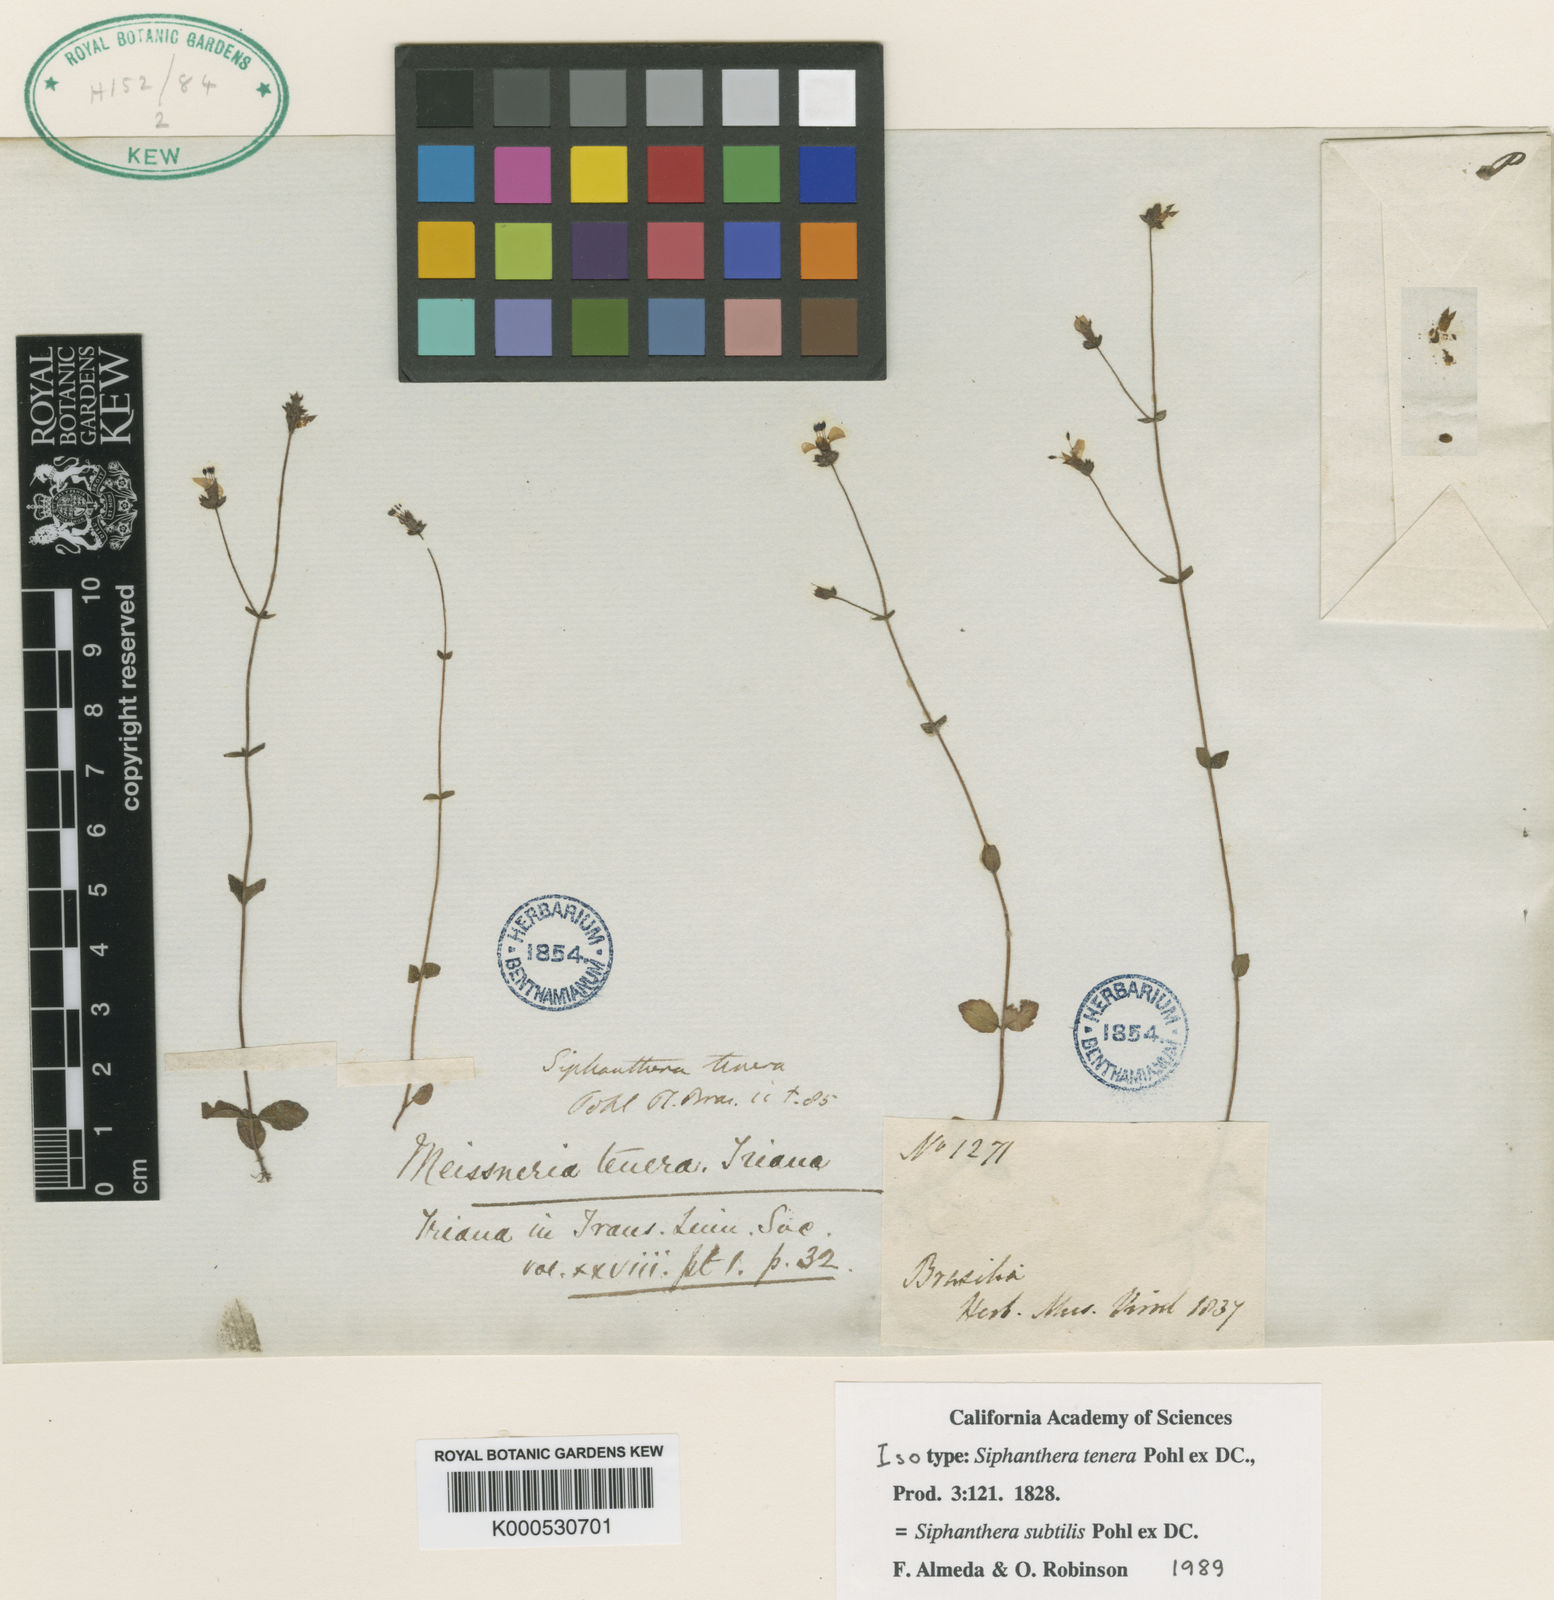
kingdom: Plantae
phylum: Tracheophyta
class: Magnoliopsida
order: Myrtales
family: Melastomataceae
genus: Siphanthera
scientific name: Siphanthera
